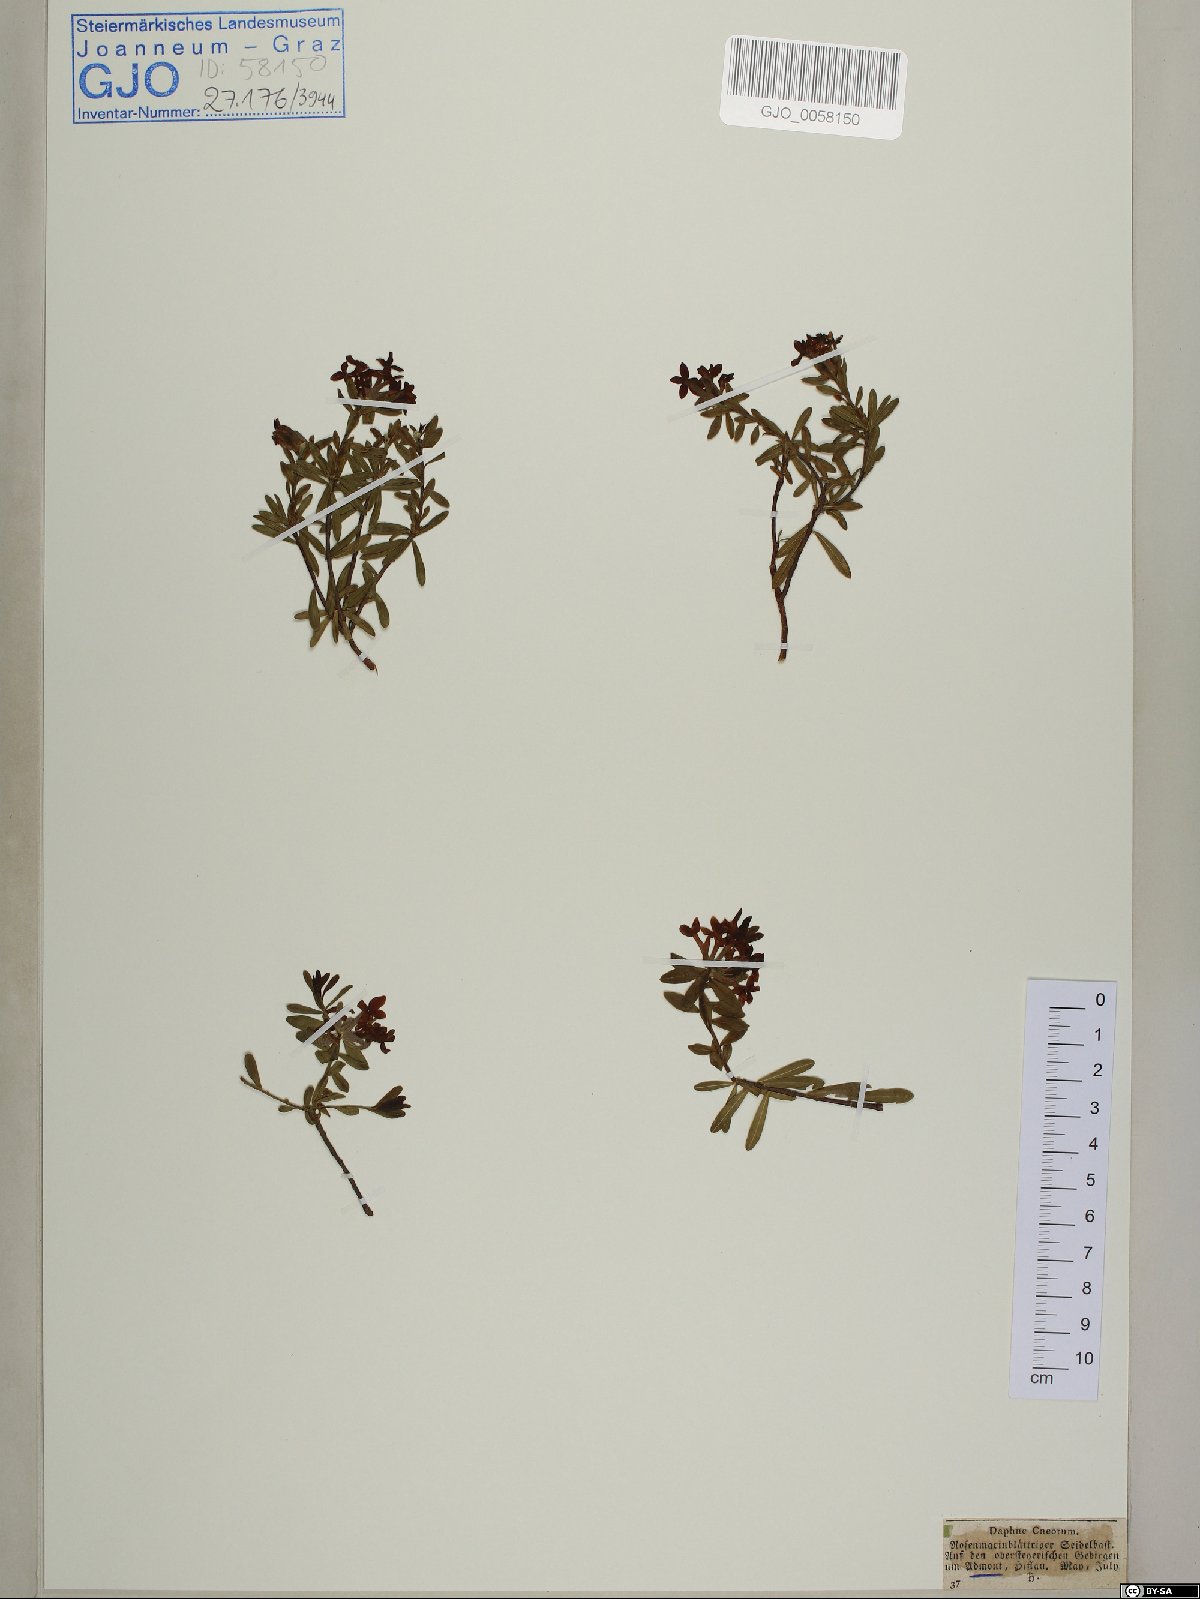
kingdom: Plantae
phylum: Tracheophyta
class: Magnoliopsida
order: Malvales
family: Thymelaeaceae
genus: Daphne
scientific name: Daphne cneorum
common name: Garland-flower
